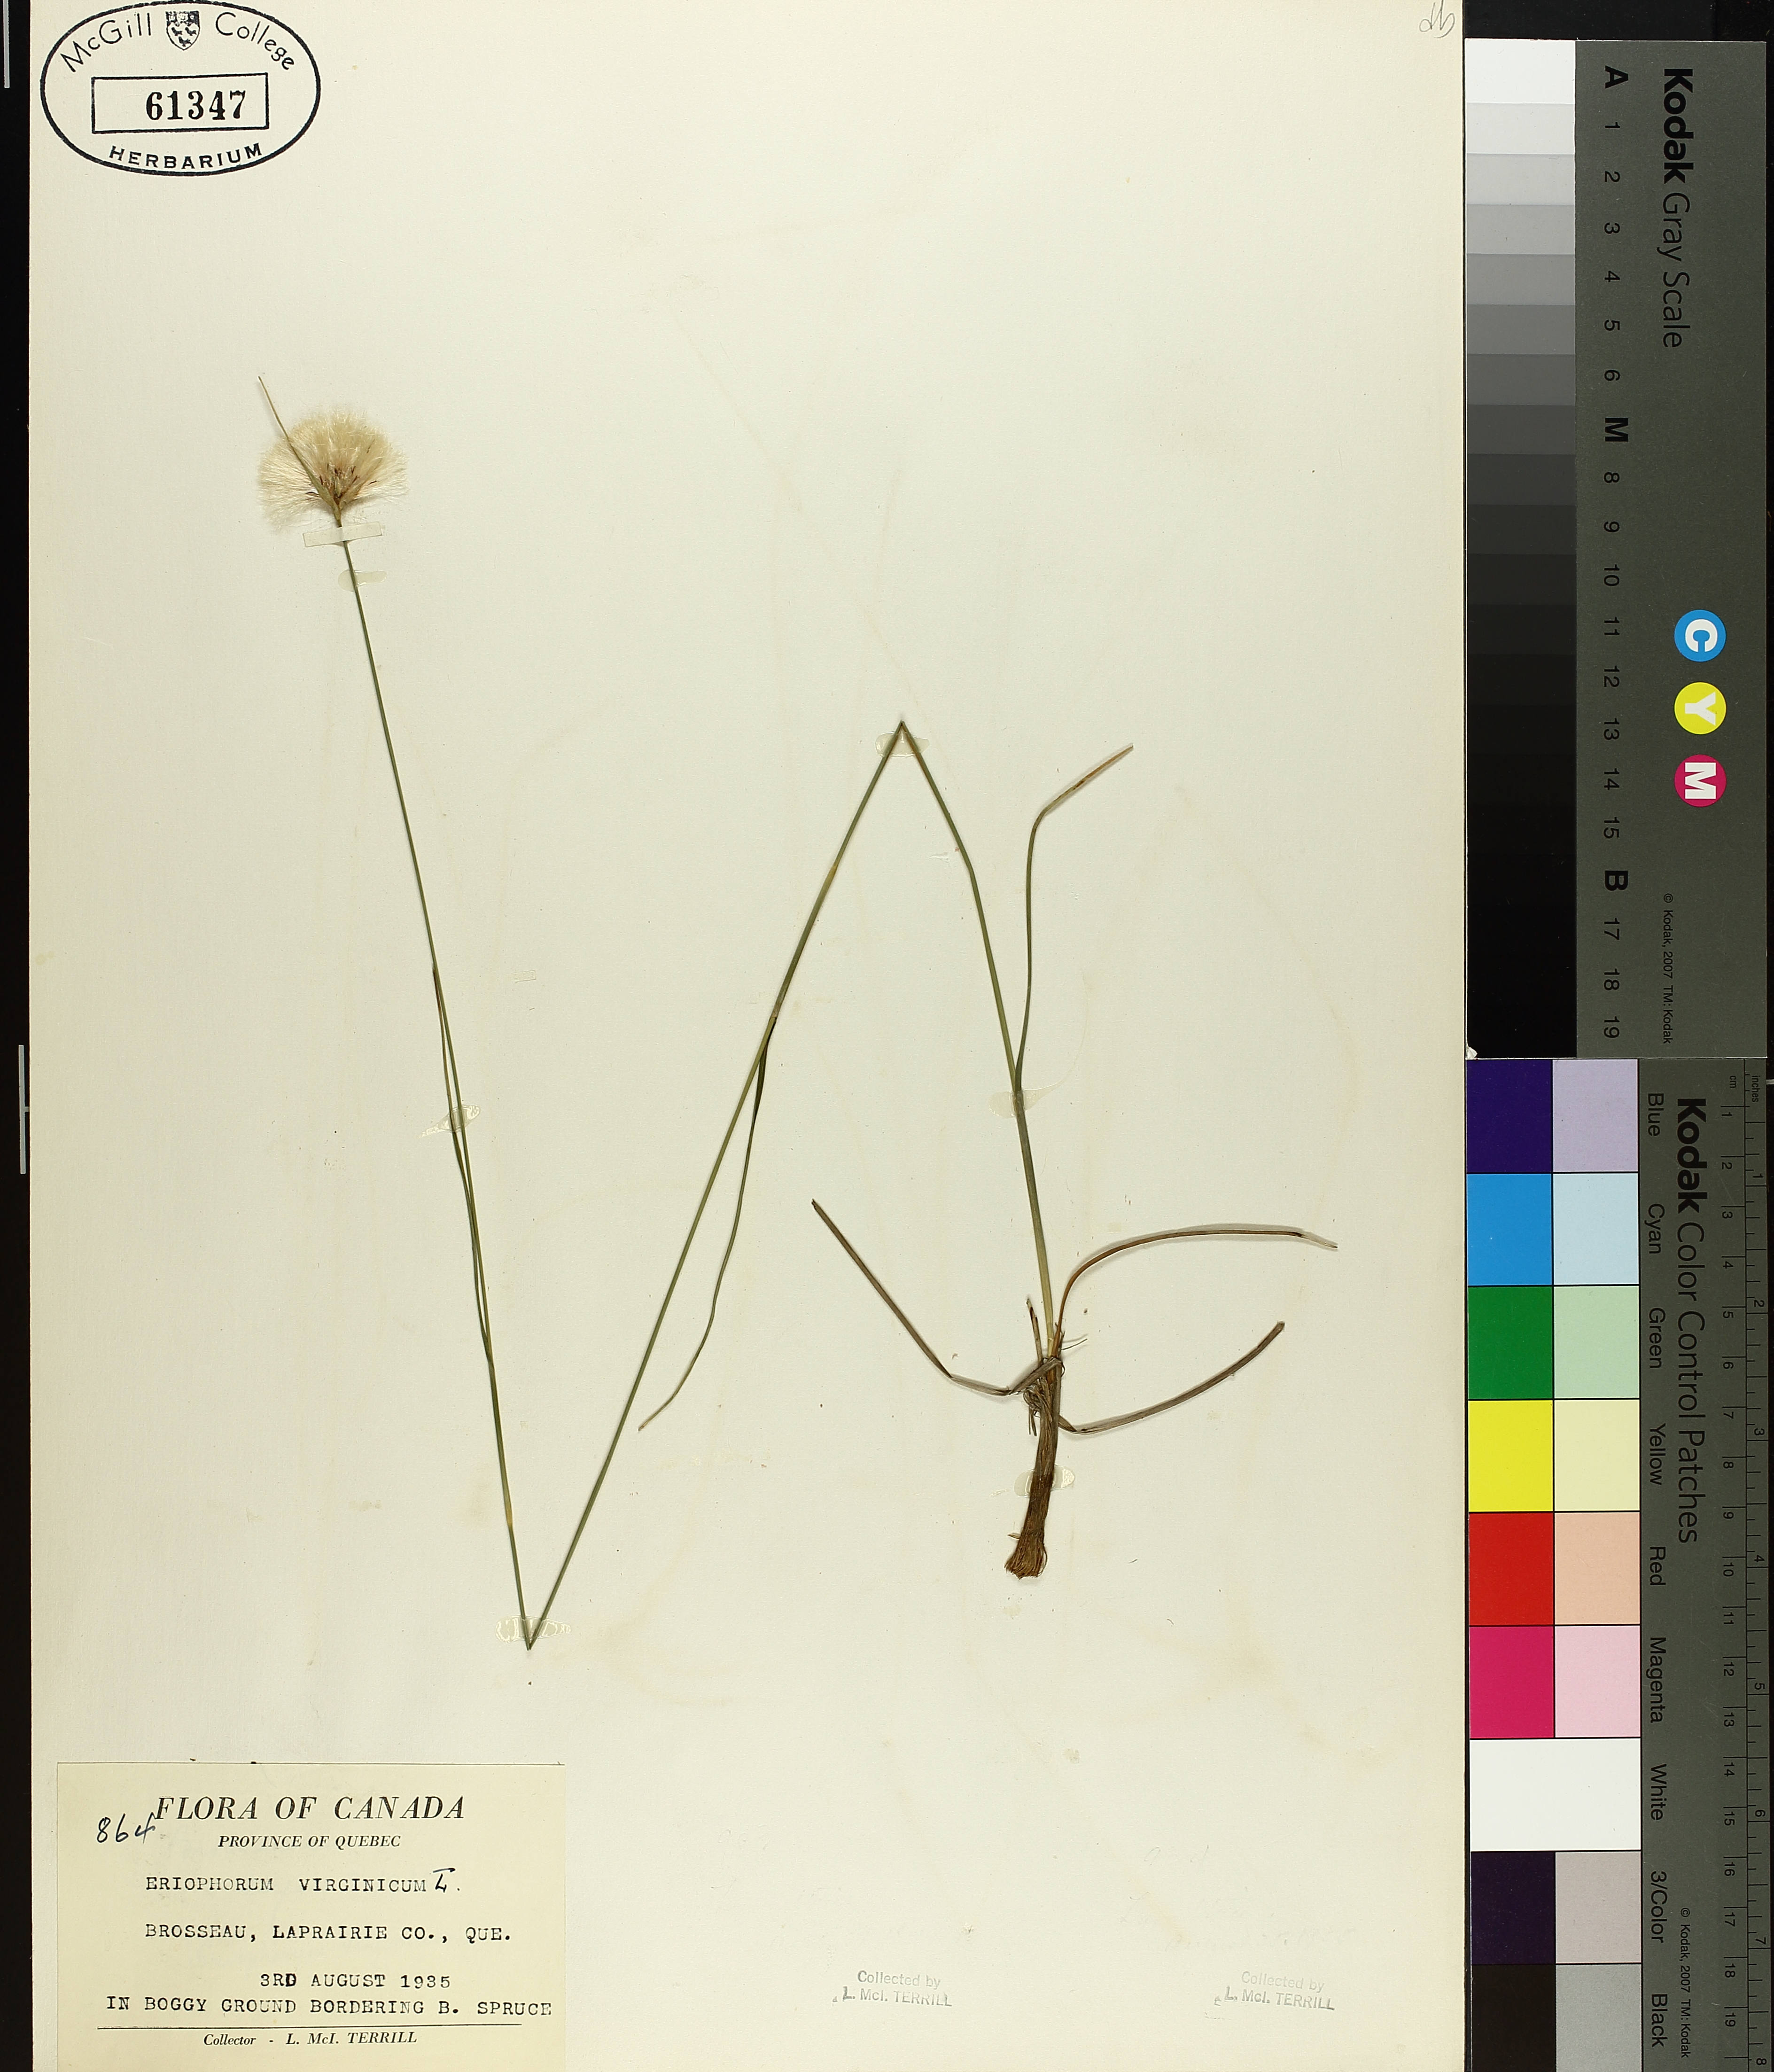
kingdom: Plantae
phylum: Tracheophyta
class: Liliopsida
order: Poales
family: Cyperaceae
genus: Eriophorum
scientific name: Eriophorum virginicum
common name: Tawny cottongrass
